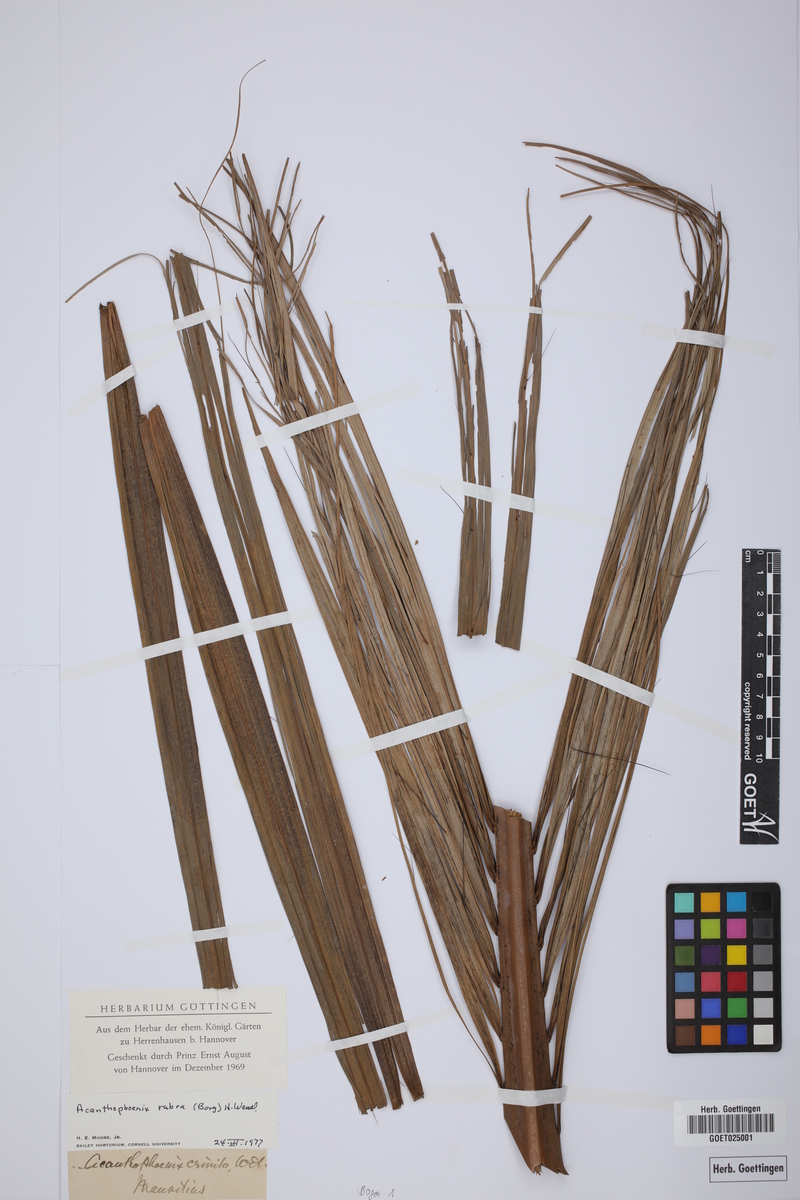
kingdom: Plantae
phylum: Tracheophyta
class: Liliopsida
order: Arecales
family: Arecaceae
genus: Acanthophoenix
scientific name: Acanthophoenix rubra
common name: Barbel palm
